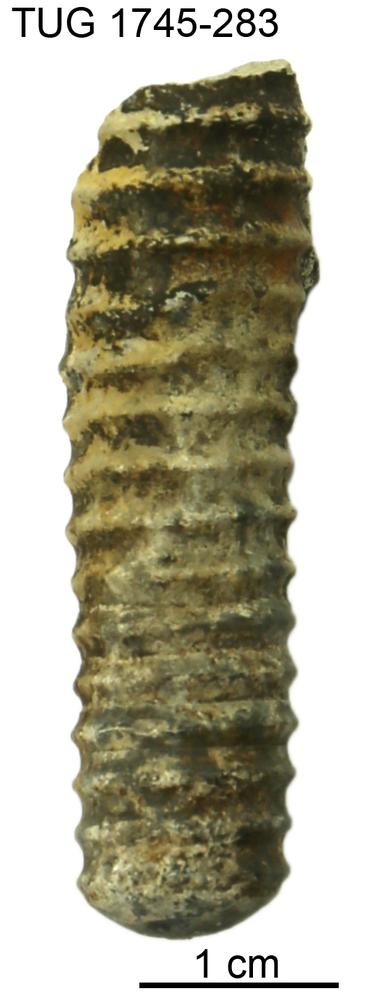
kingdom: Animalia
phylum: Mollusca
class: Cephalopoda
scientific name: Cephalopoda
